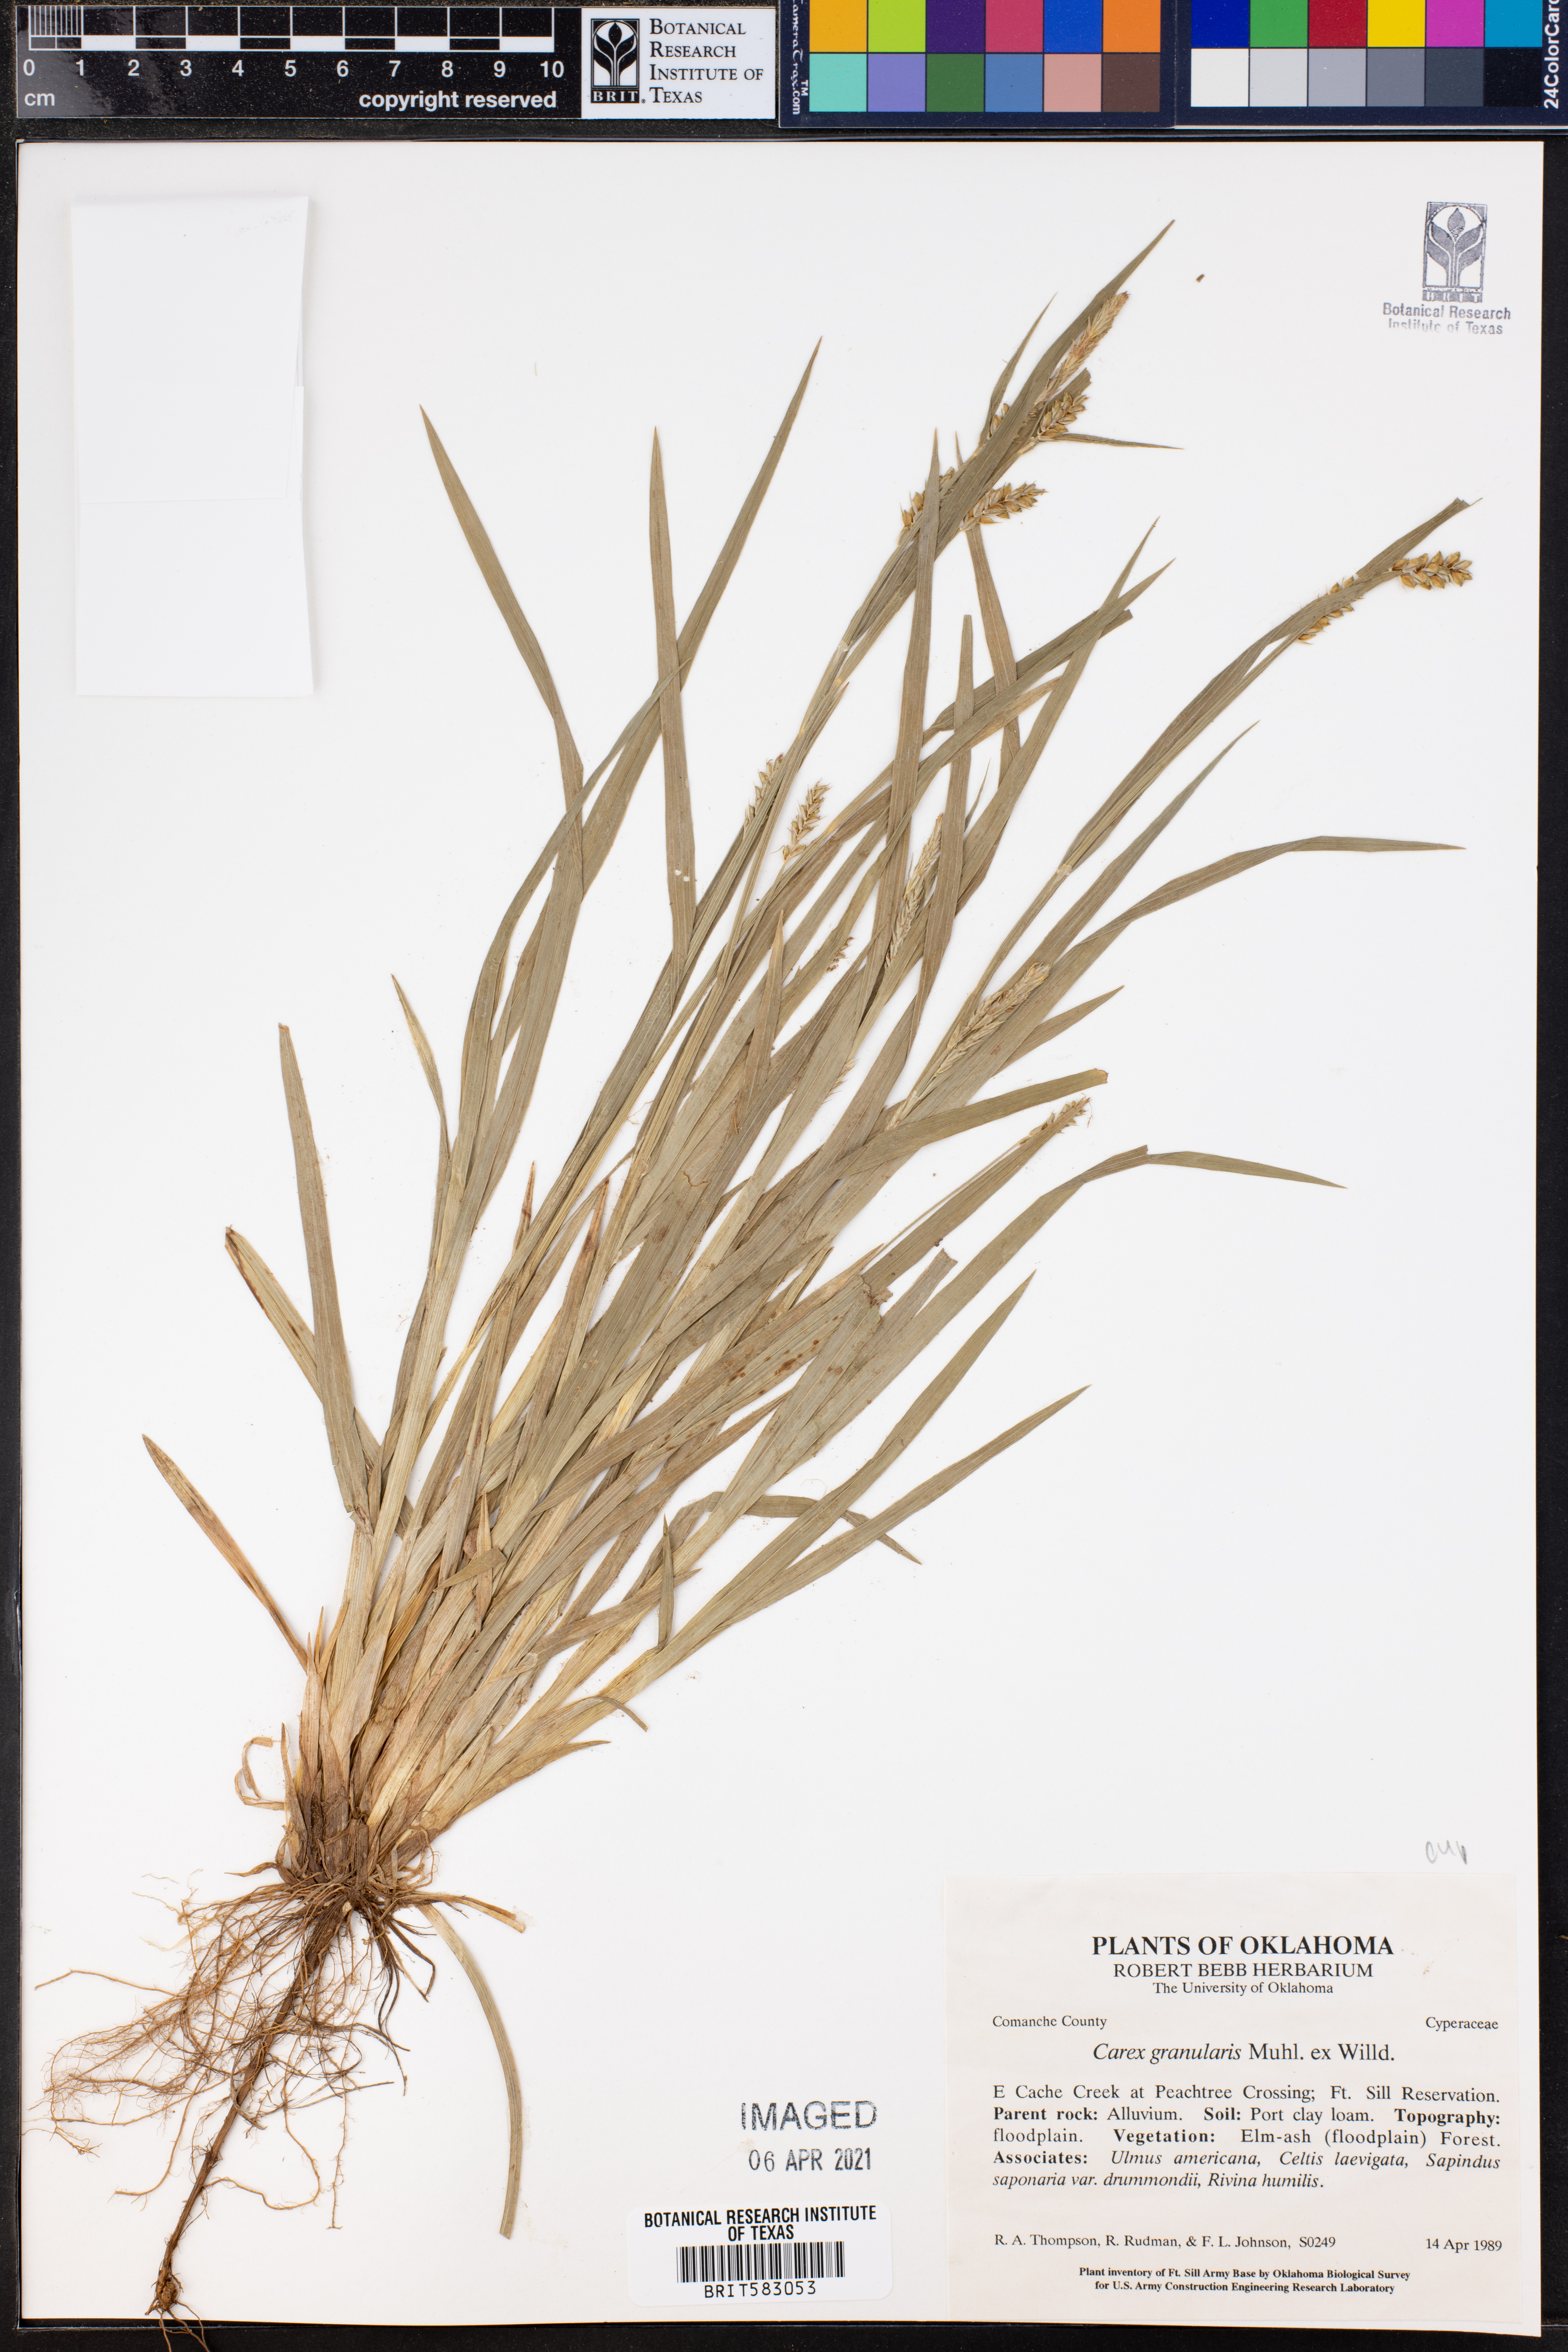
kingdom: Plantae
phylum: Tracheophyta
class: Liliopsida
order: Poales
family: Cyperaceae
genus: Carex
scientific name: Carex granularis
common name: Granular sedge
